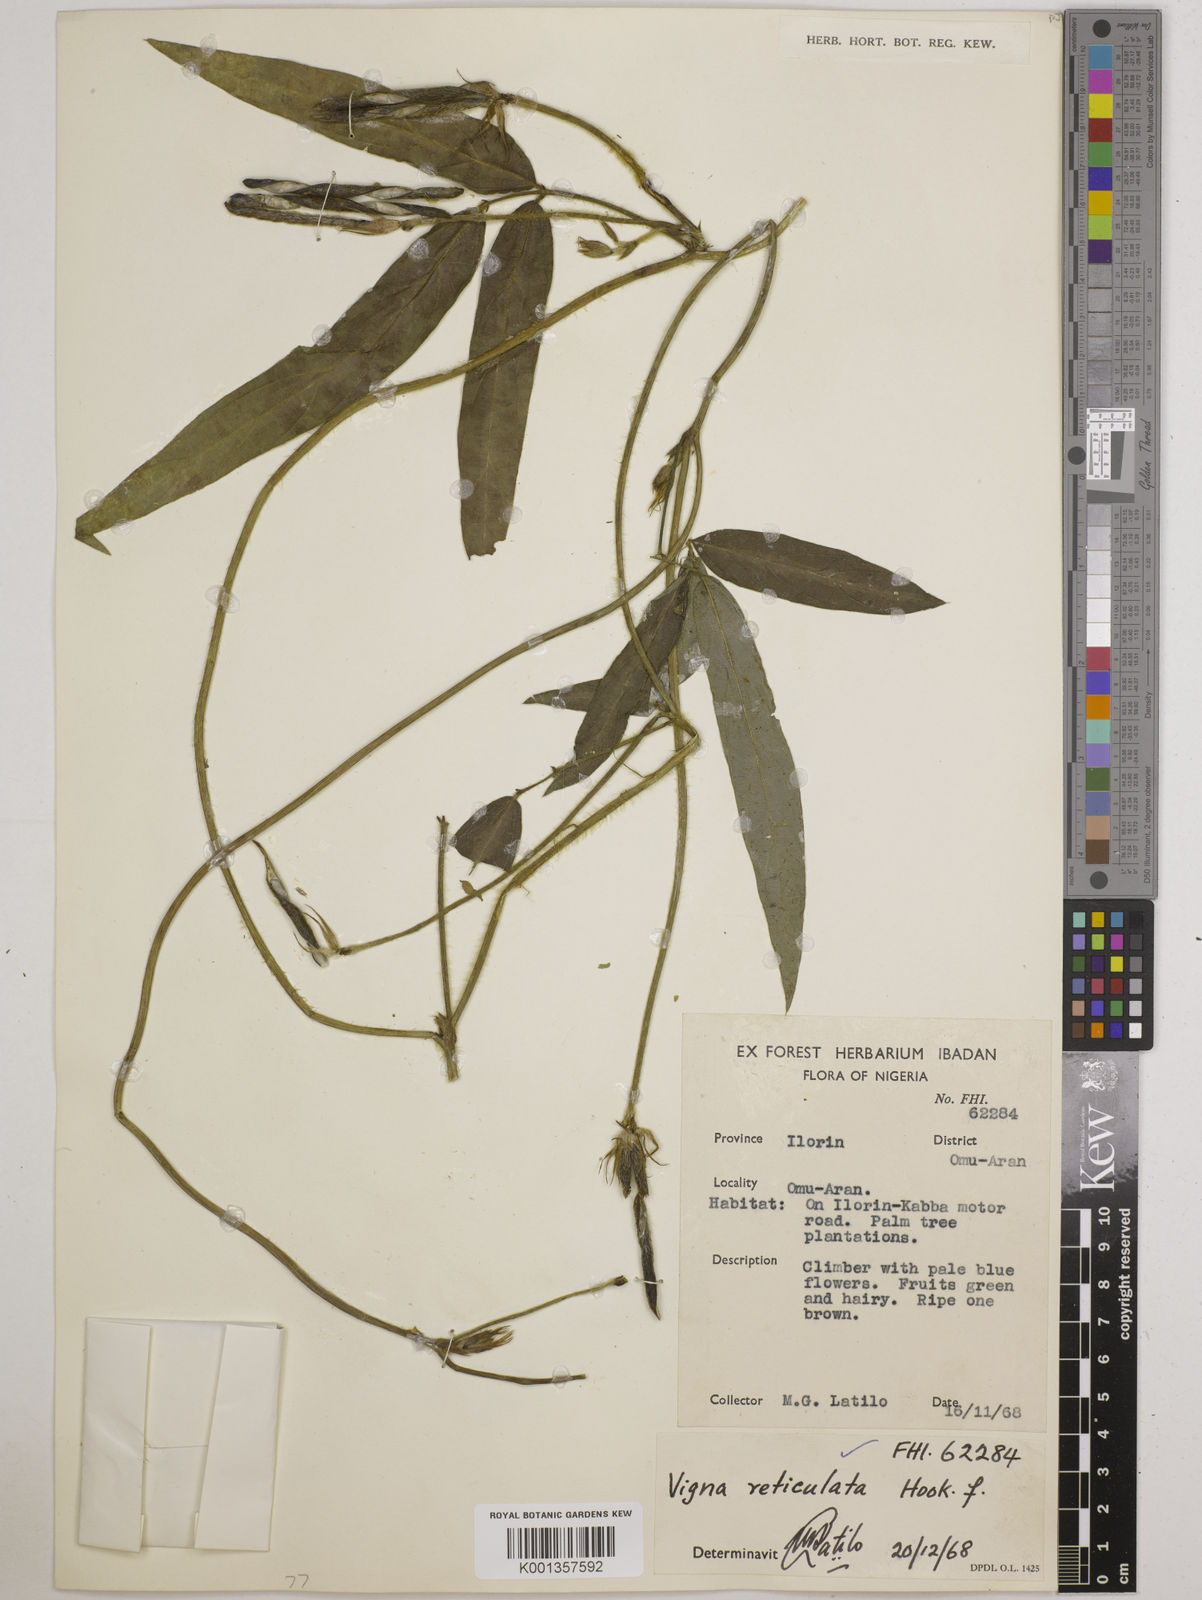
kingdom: Plantae
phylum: Tracheophyta
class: Magnoliopsida
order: Fabales
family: Fabaceae
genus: Vigna
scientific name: Vigna reticulata
